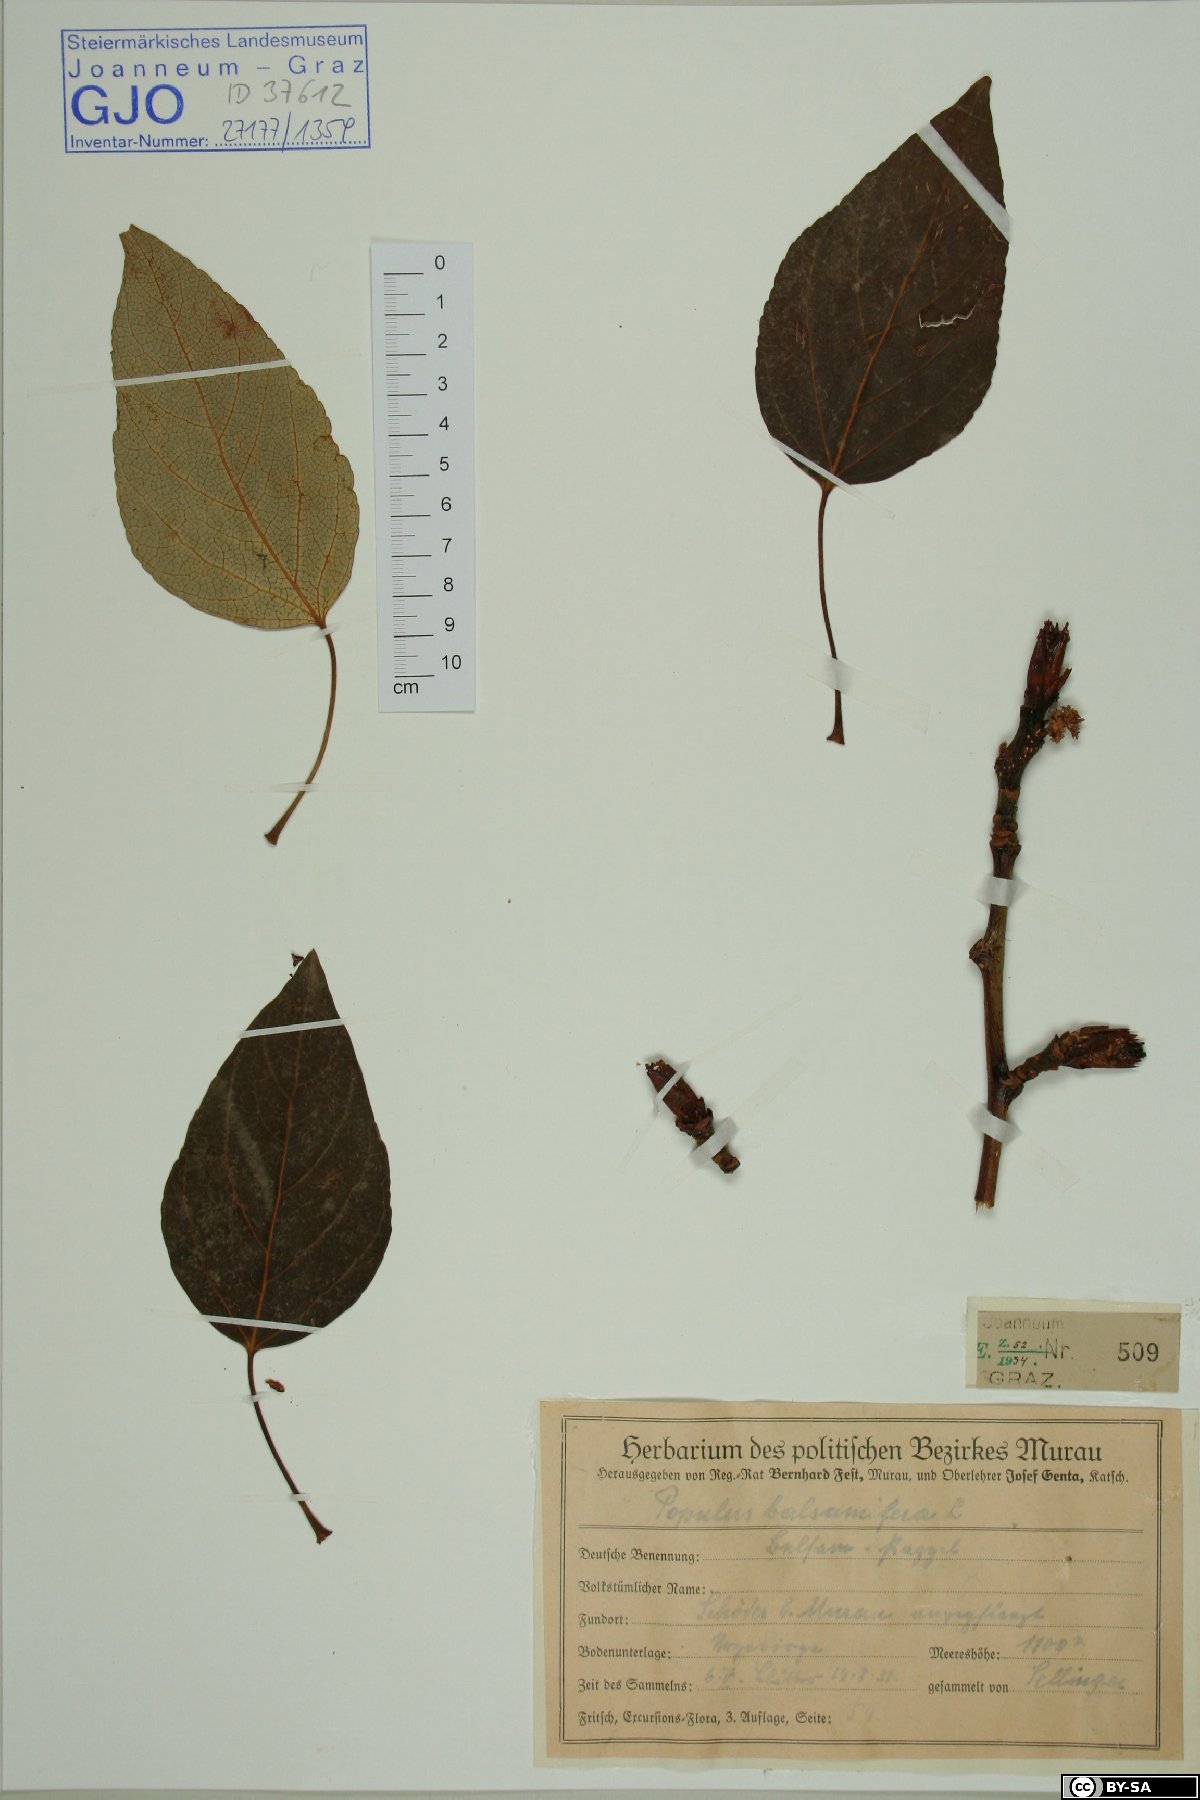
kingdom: Plantae
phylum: Tracheophyta
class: Magnoliopsida
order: Malpighiales
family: Salicaceae
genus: Populus
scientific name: Populus balsamifera
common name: Balsam poplar
